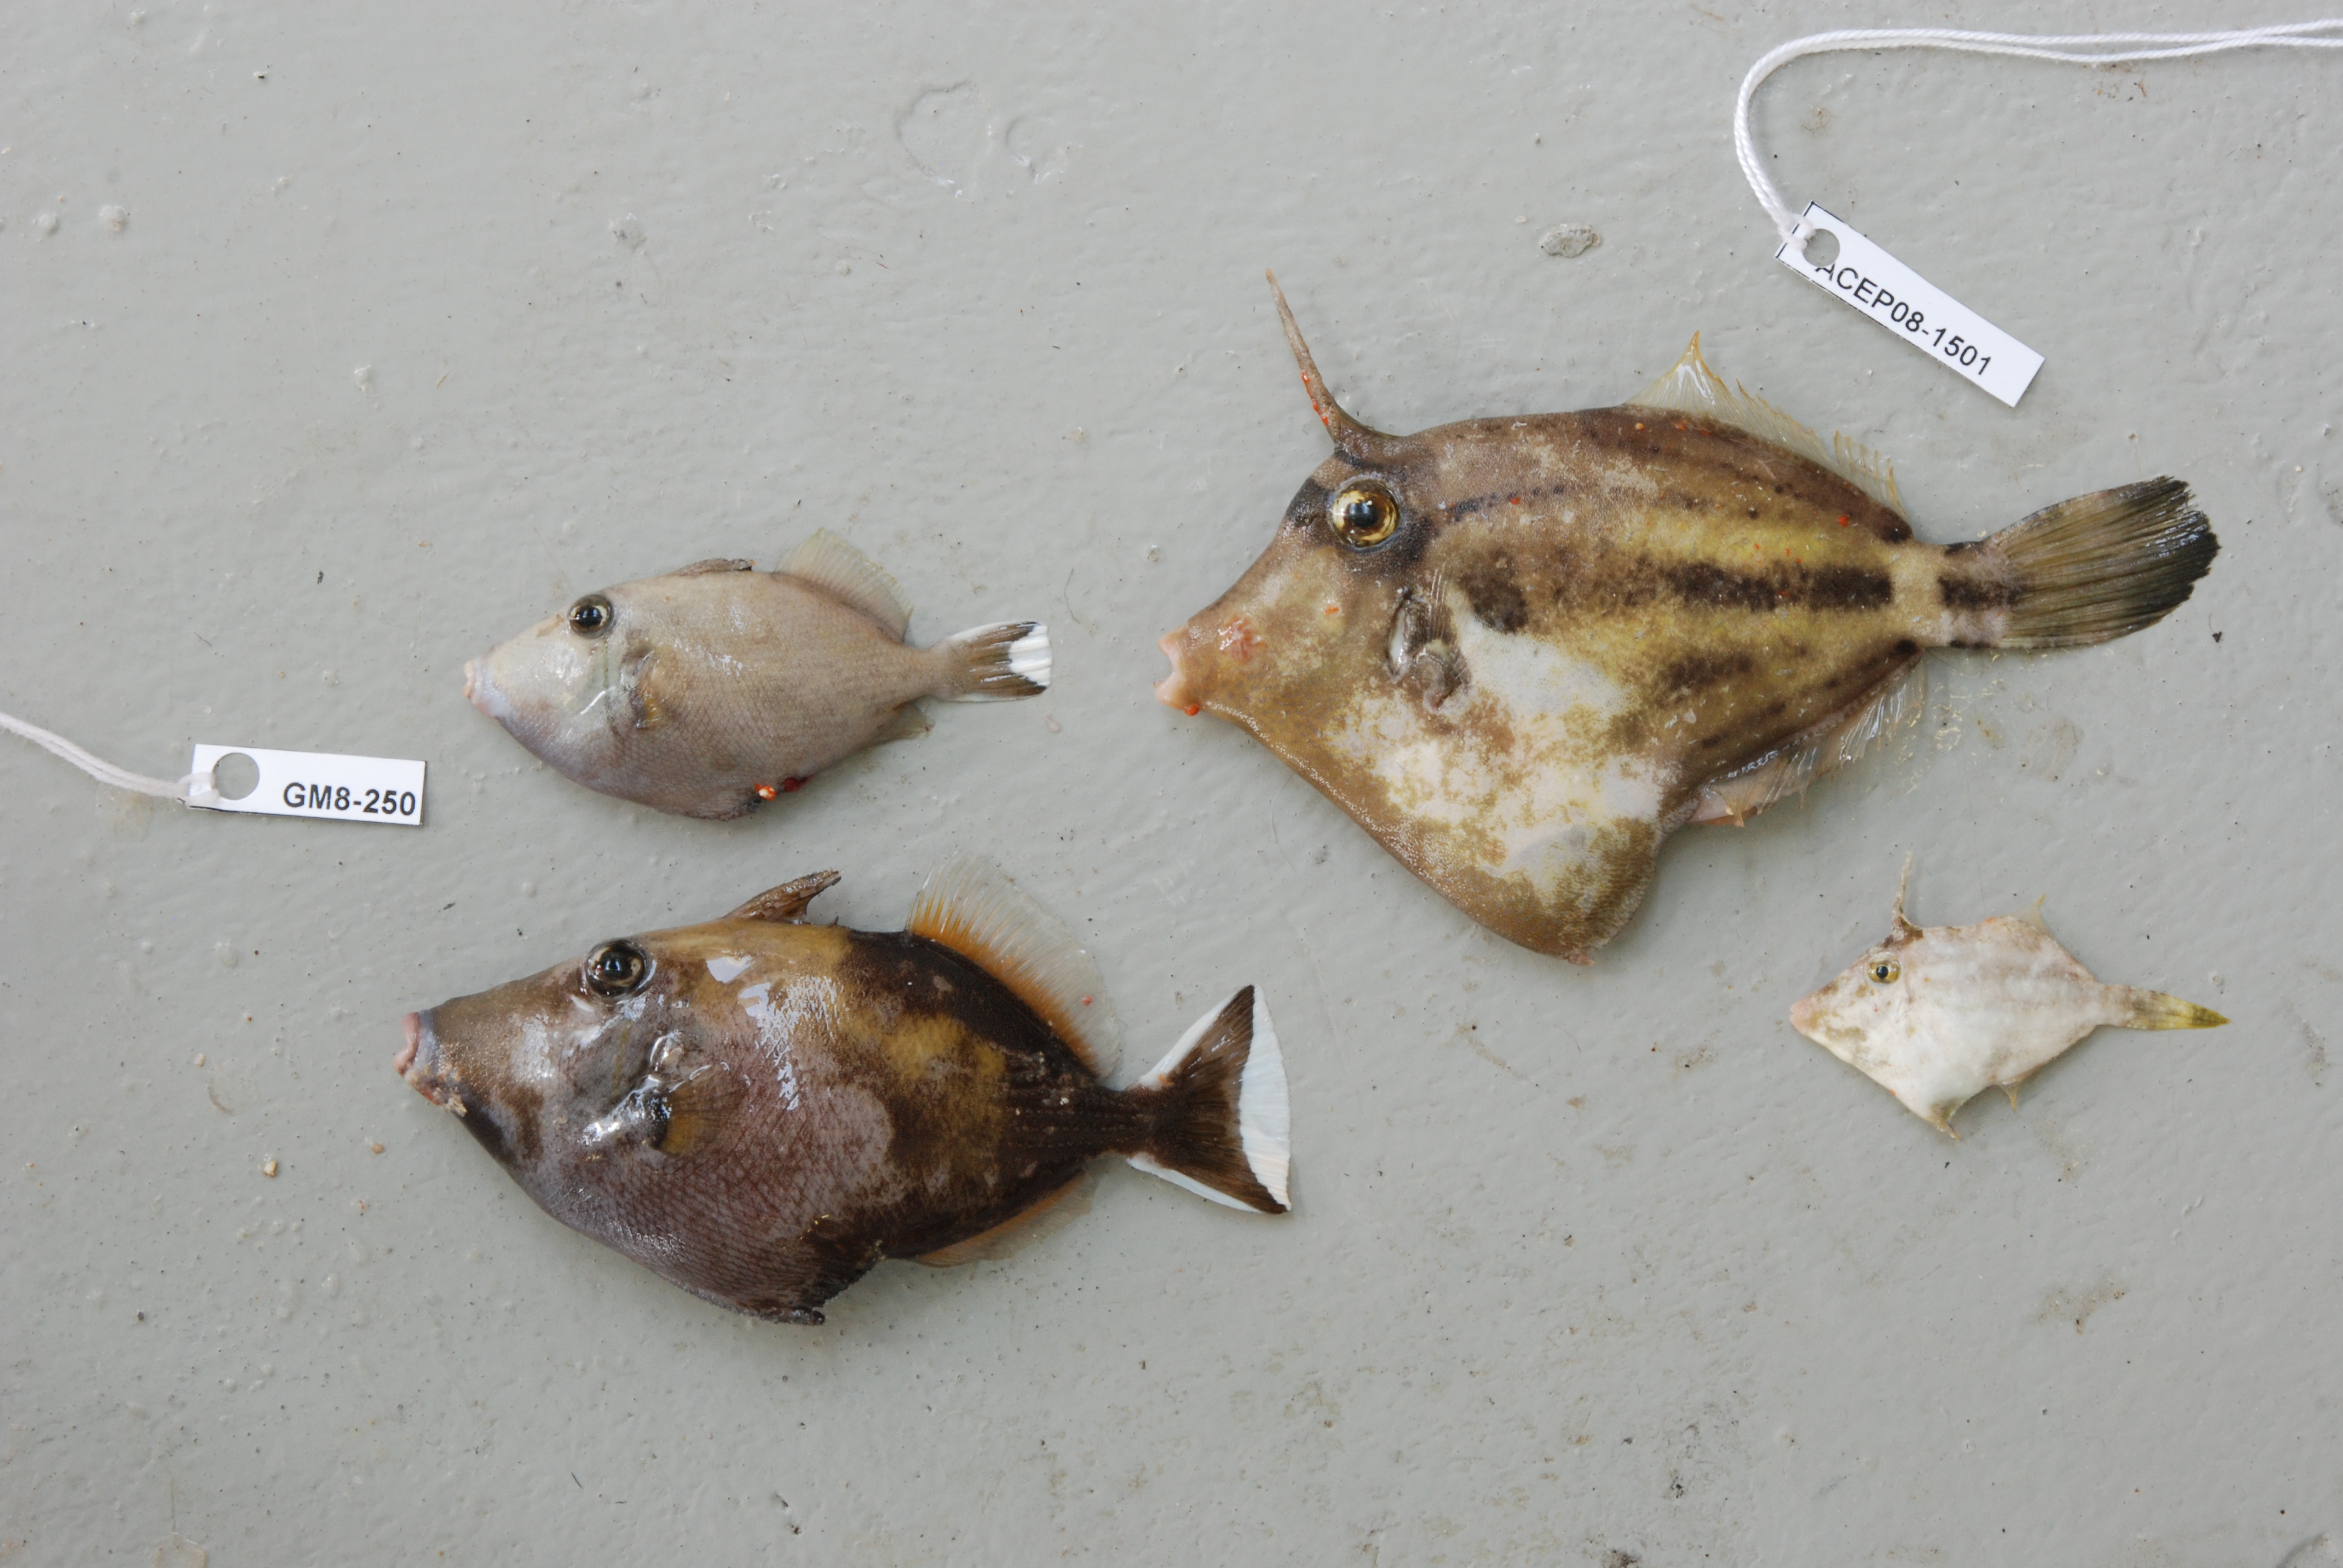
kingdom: Animalia
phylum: Chordata
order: Tetraodontiformes
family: Monacanthidae
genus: Cantherhines
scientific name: Cantherhines fronticinctus
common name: Spectacled filefish
